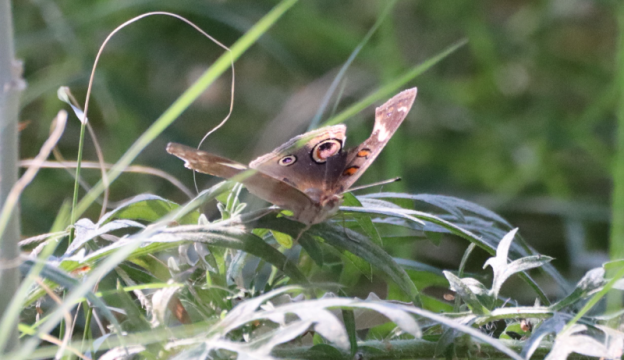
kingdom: Animalia
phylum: Arthropoda
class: Insecta
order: Lepidoptera
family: Nymphalidae
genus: Junonia
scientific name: Junonia coenia
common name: Common Buckeye
